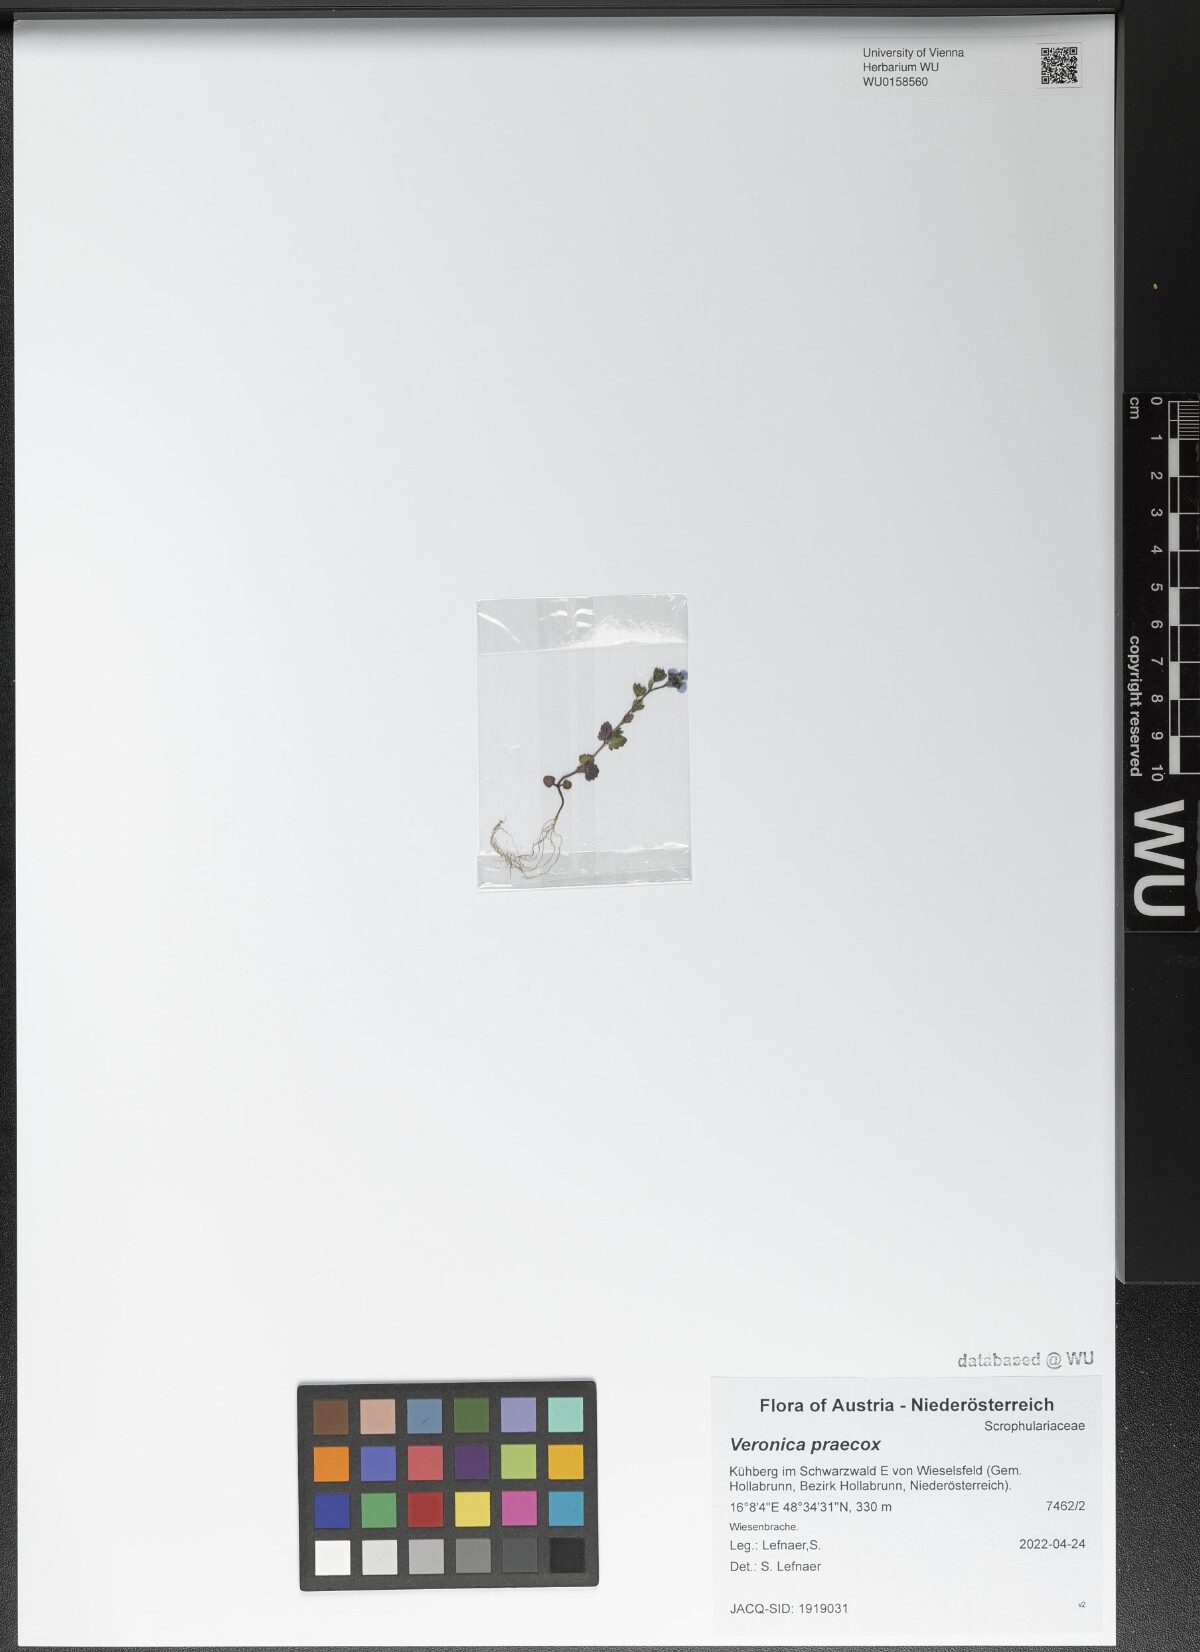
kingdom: Plantae
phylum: Tracheophyta
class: Magnoliopsida
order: Lamiales
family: Plantaginaceae
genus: Veronica
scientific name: Veronica praecox
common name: Breckland speedwell
